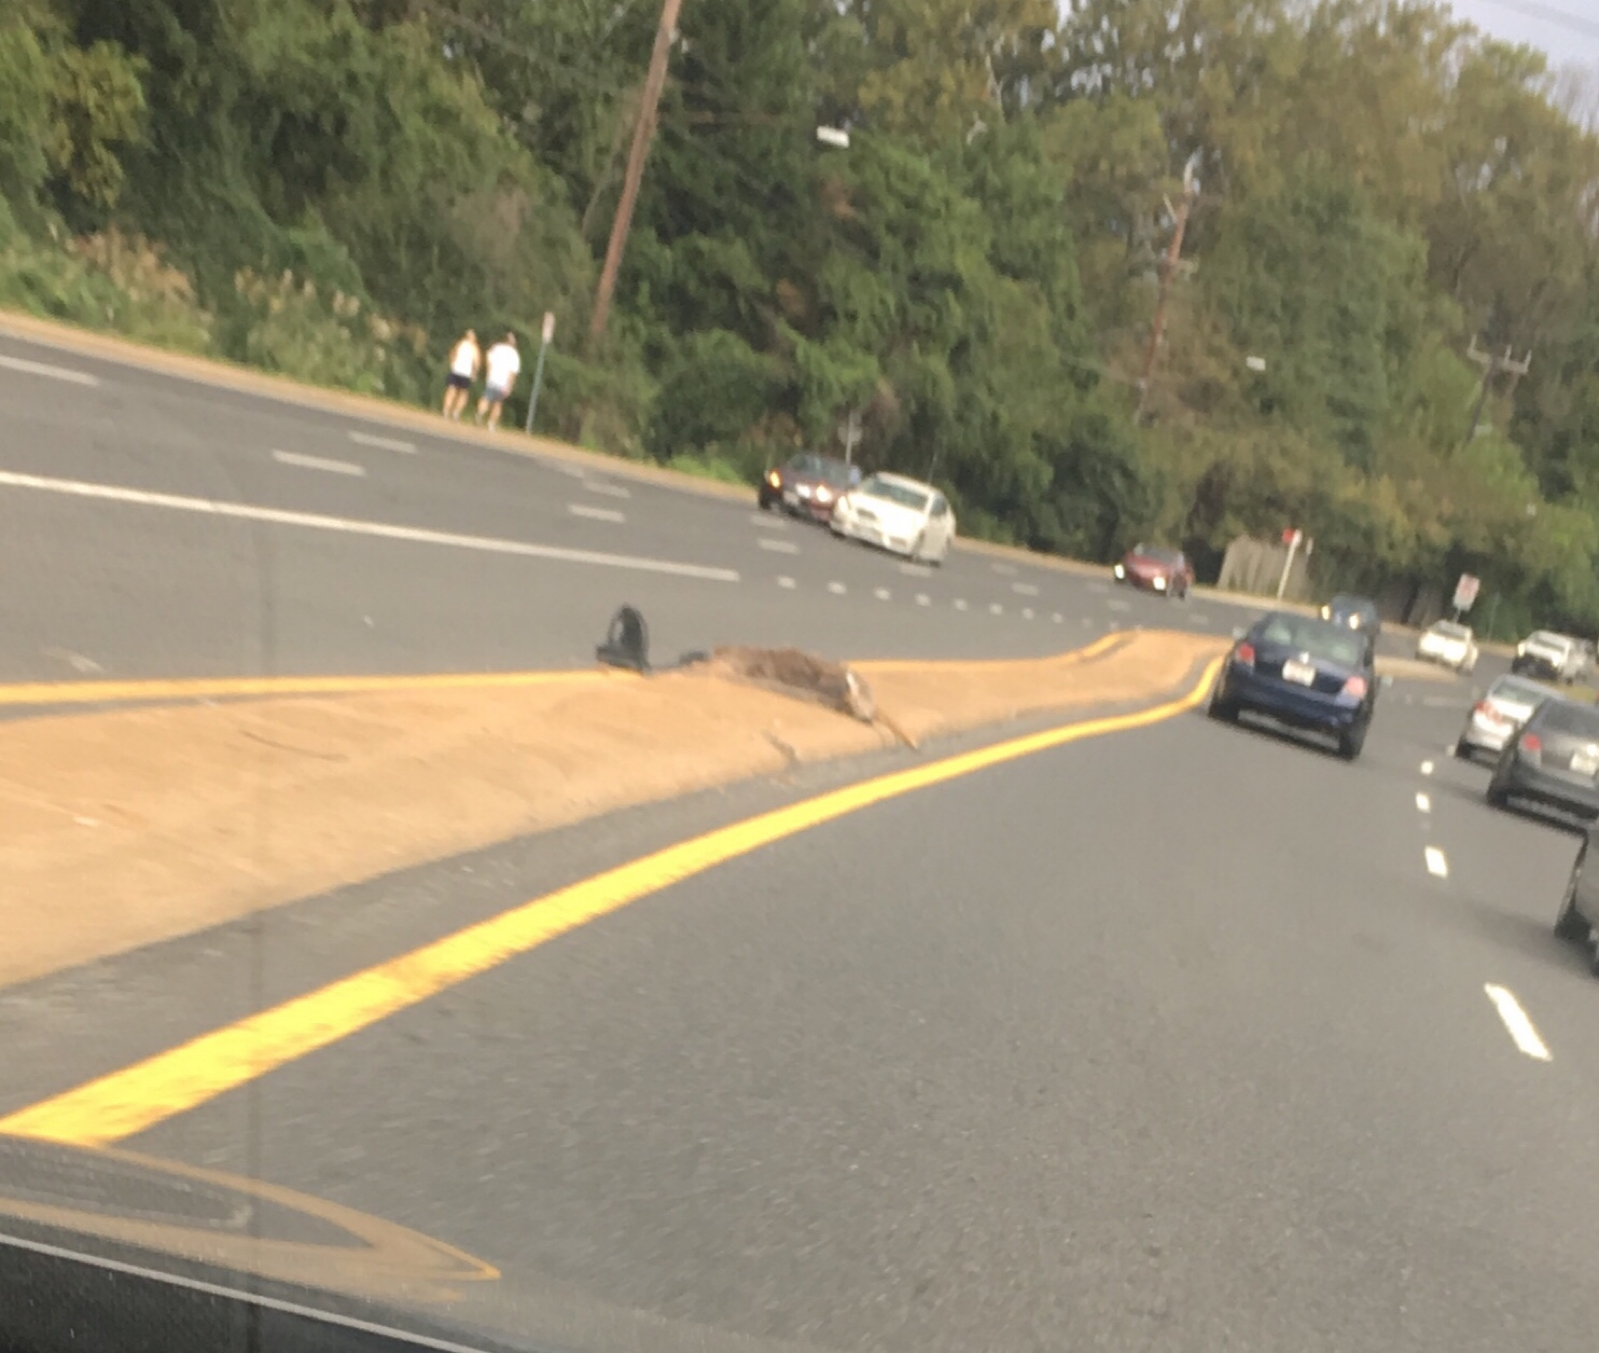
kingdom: Animalia
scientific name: Animalia
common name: NA
